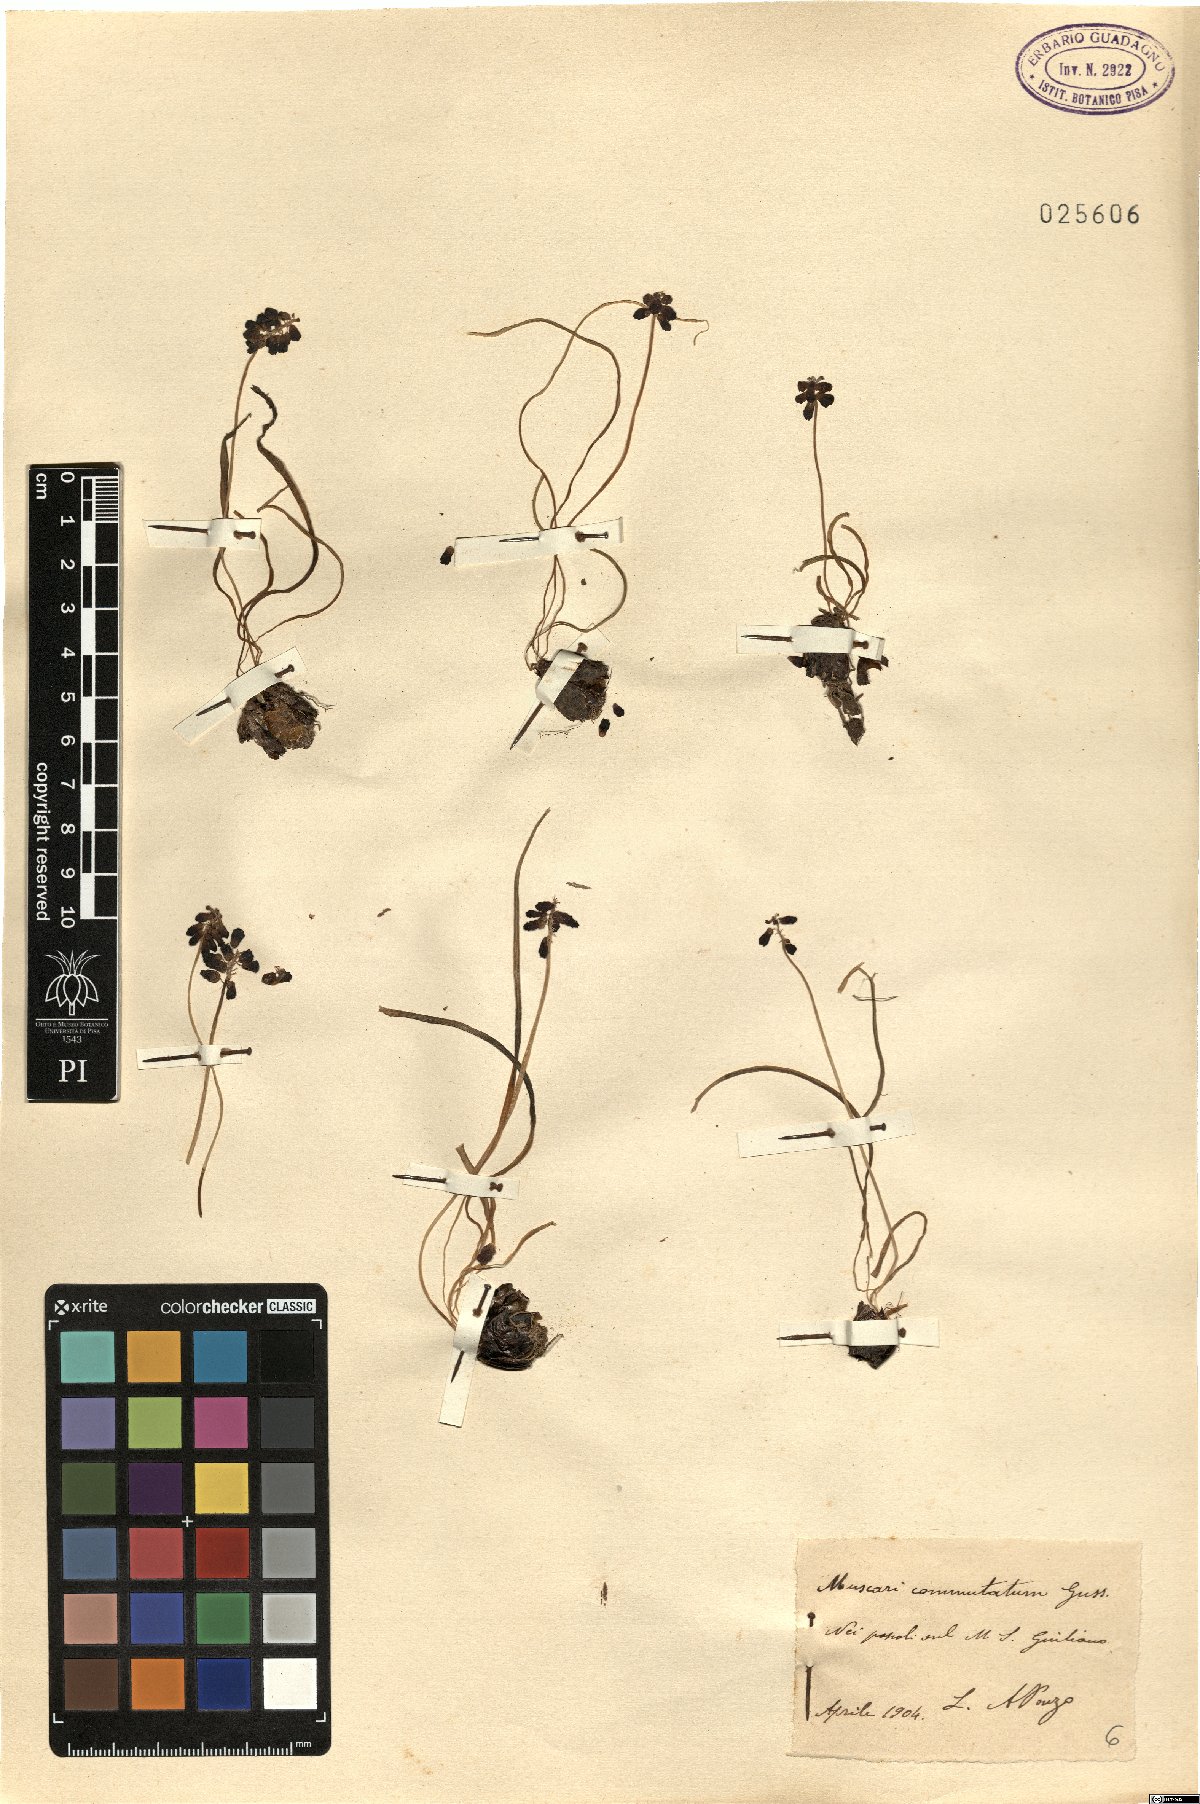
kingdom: Plantae
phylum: Tracheophyta
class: Liliopsida
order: Asparagales
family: Asparagaceae
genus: Muscari
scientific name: Muscari commutatum
